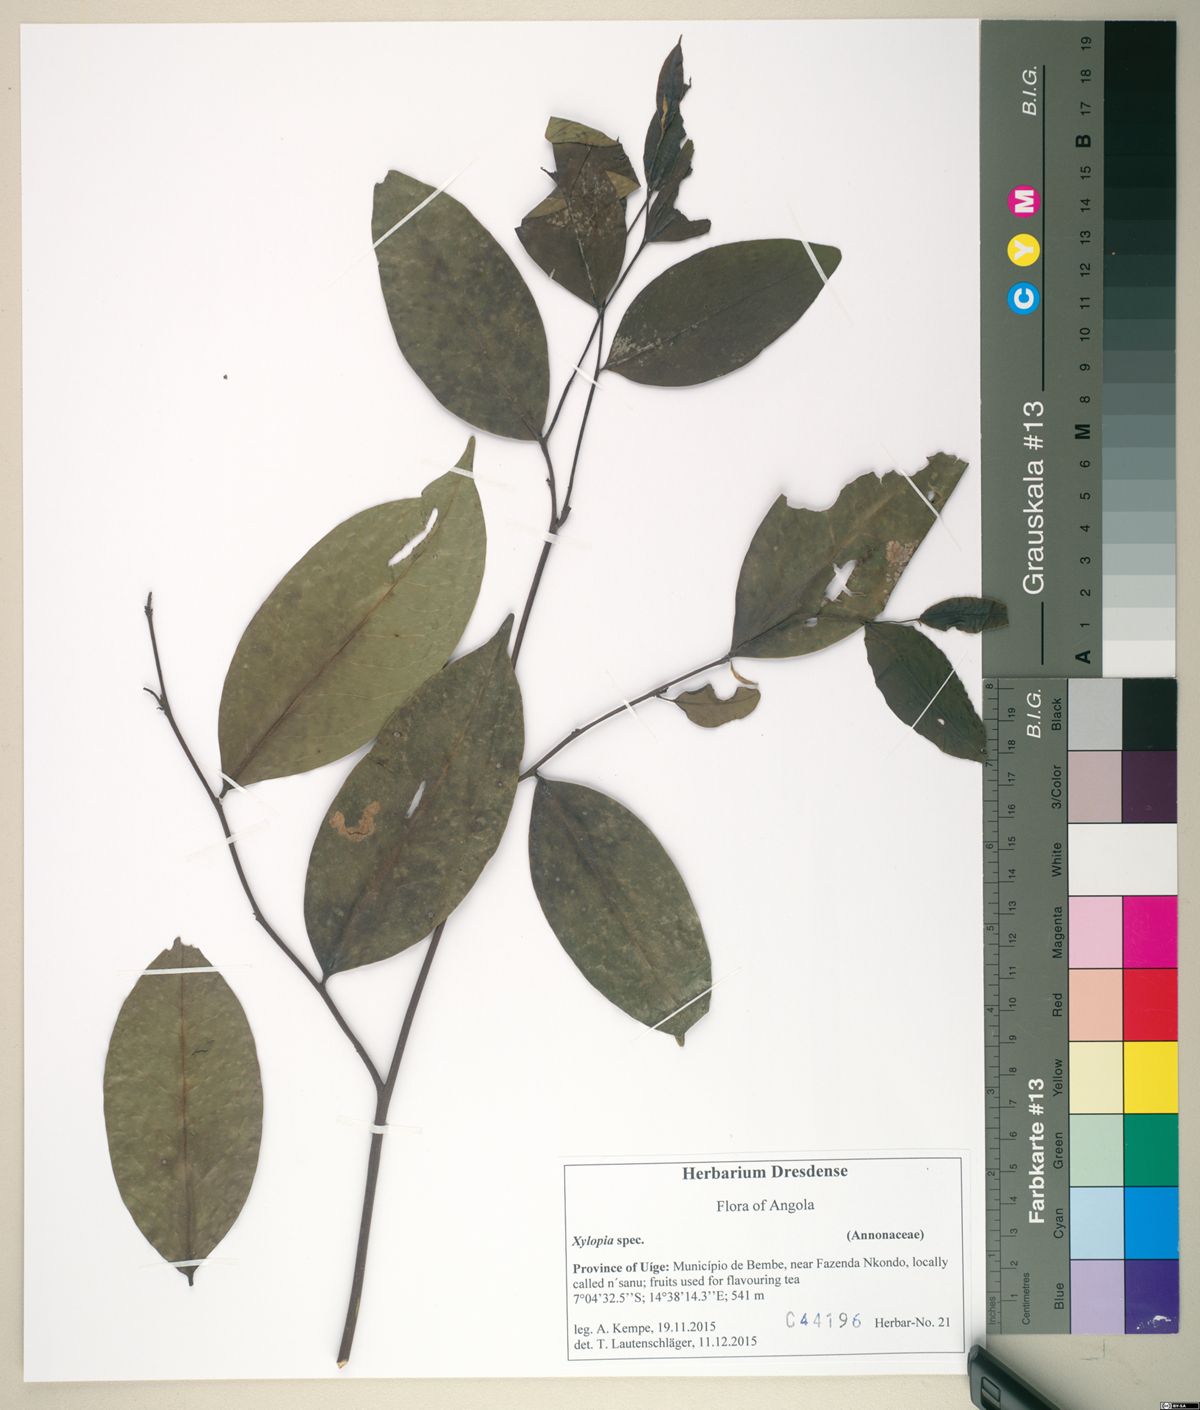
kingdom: Plantae
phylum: Tracheophyta
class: Magnoliopsida
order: Magnoliales
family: Annonaceae
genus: Xylopia
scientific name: Xylopia
